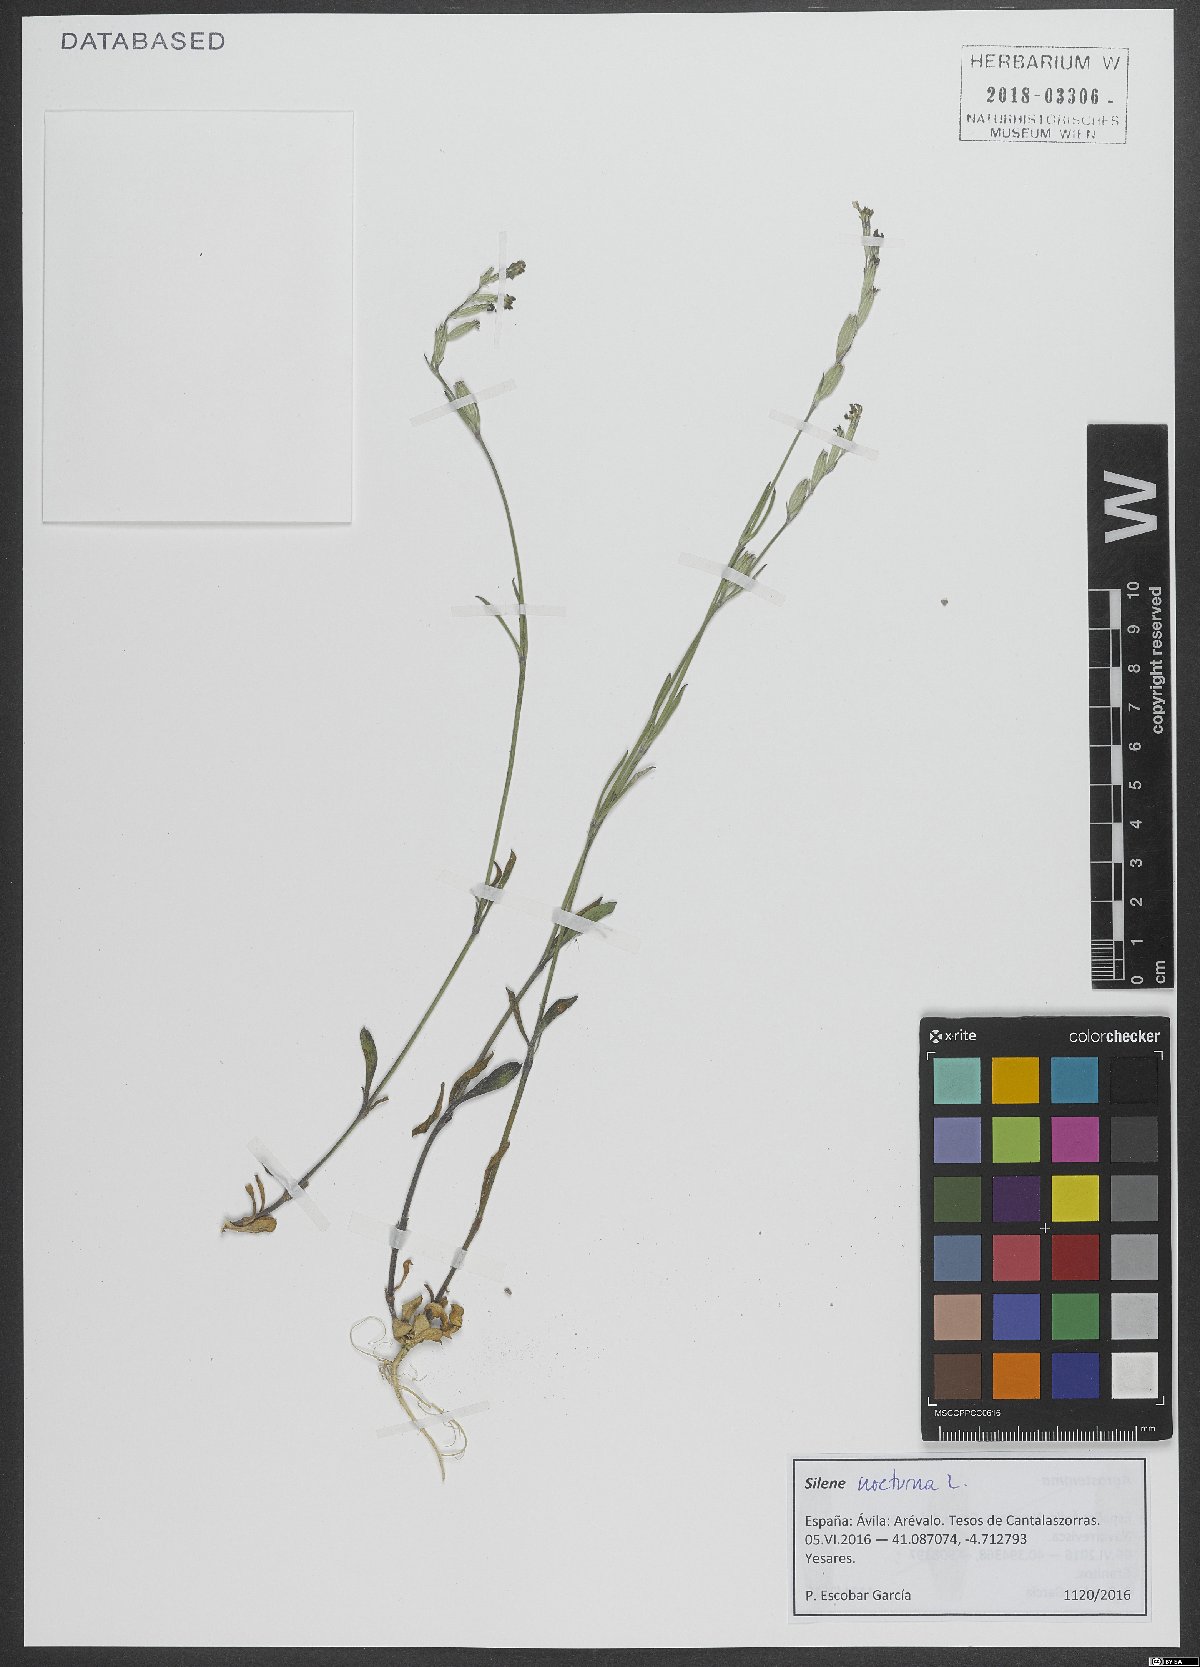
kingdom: Plantae
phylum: Tracheophyta
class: Magnoliopsida
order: Caryophyllales
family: Caryophyllaceae
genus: Silene
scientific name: Silene nocturna
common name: Mediterranean catchfly
